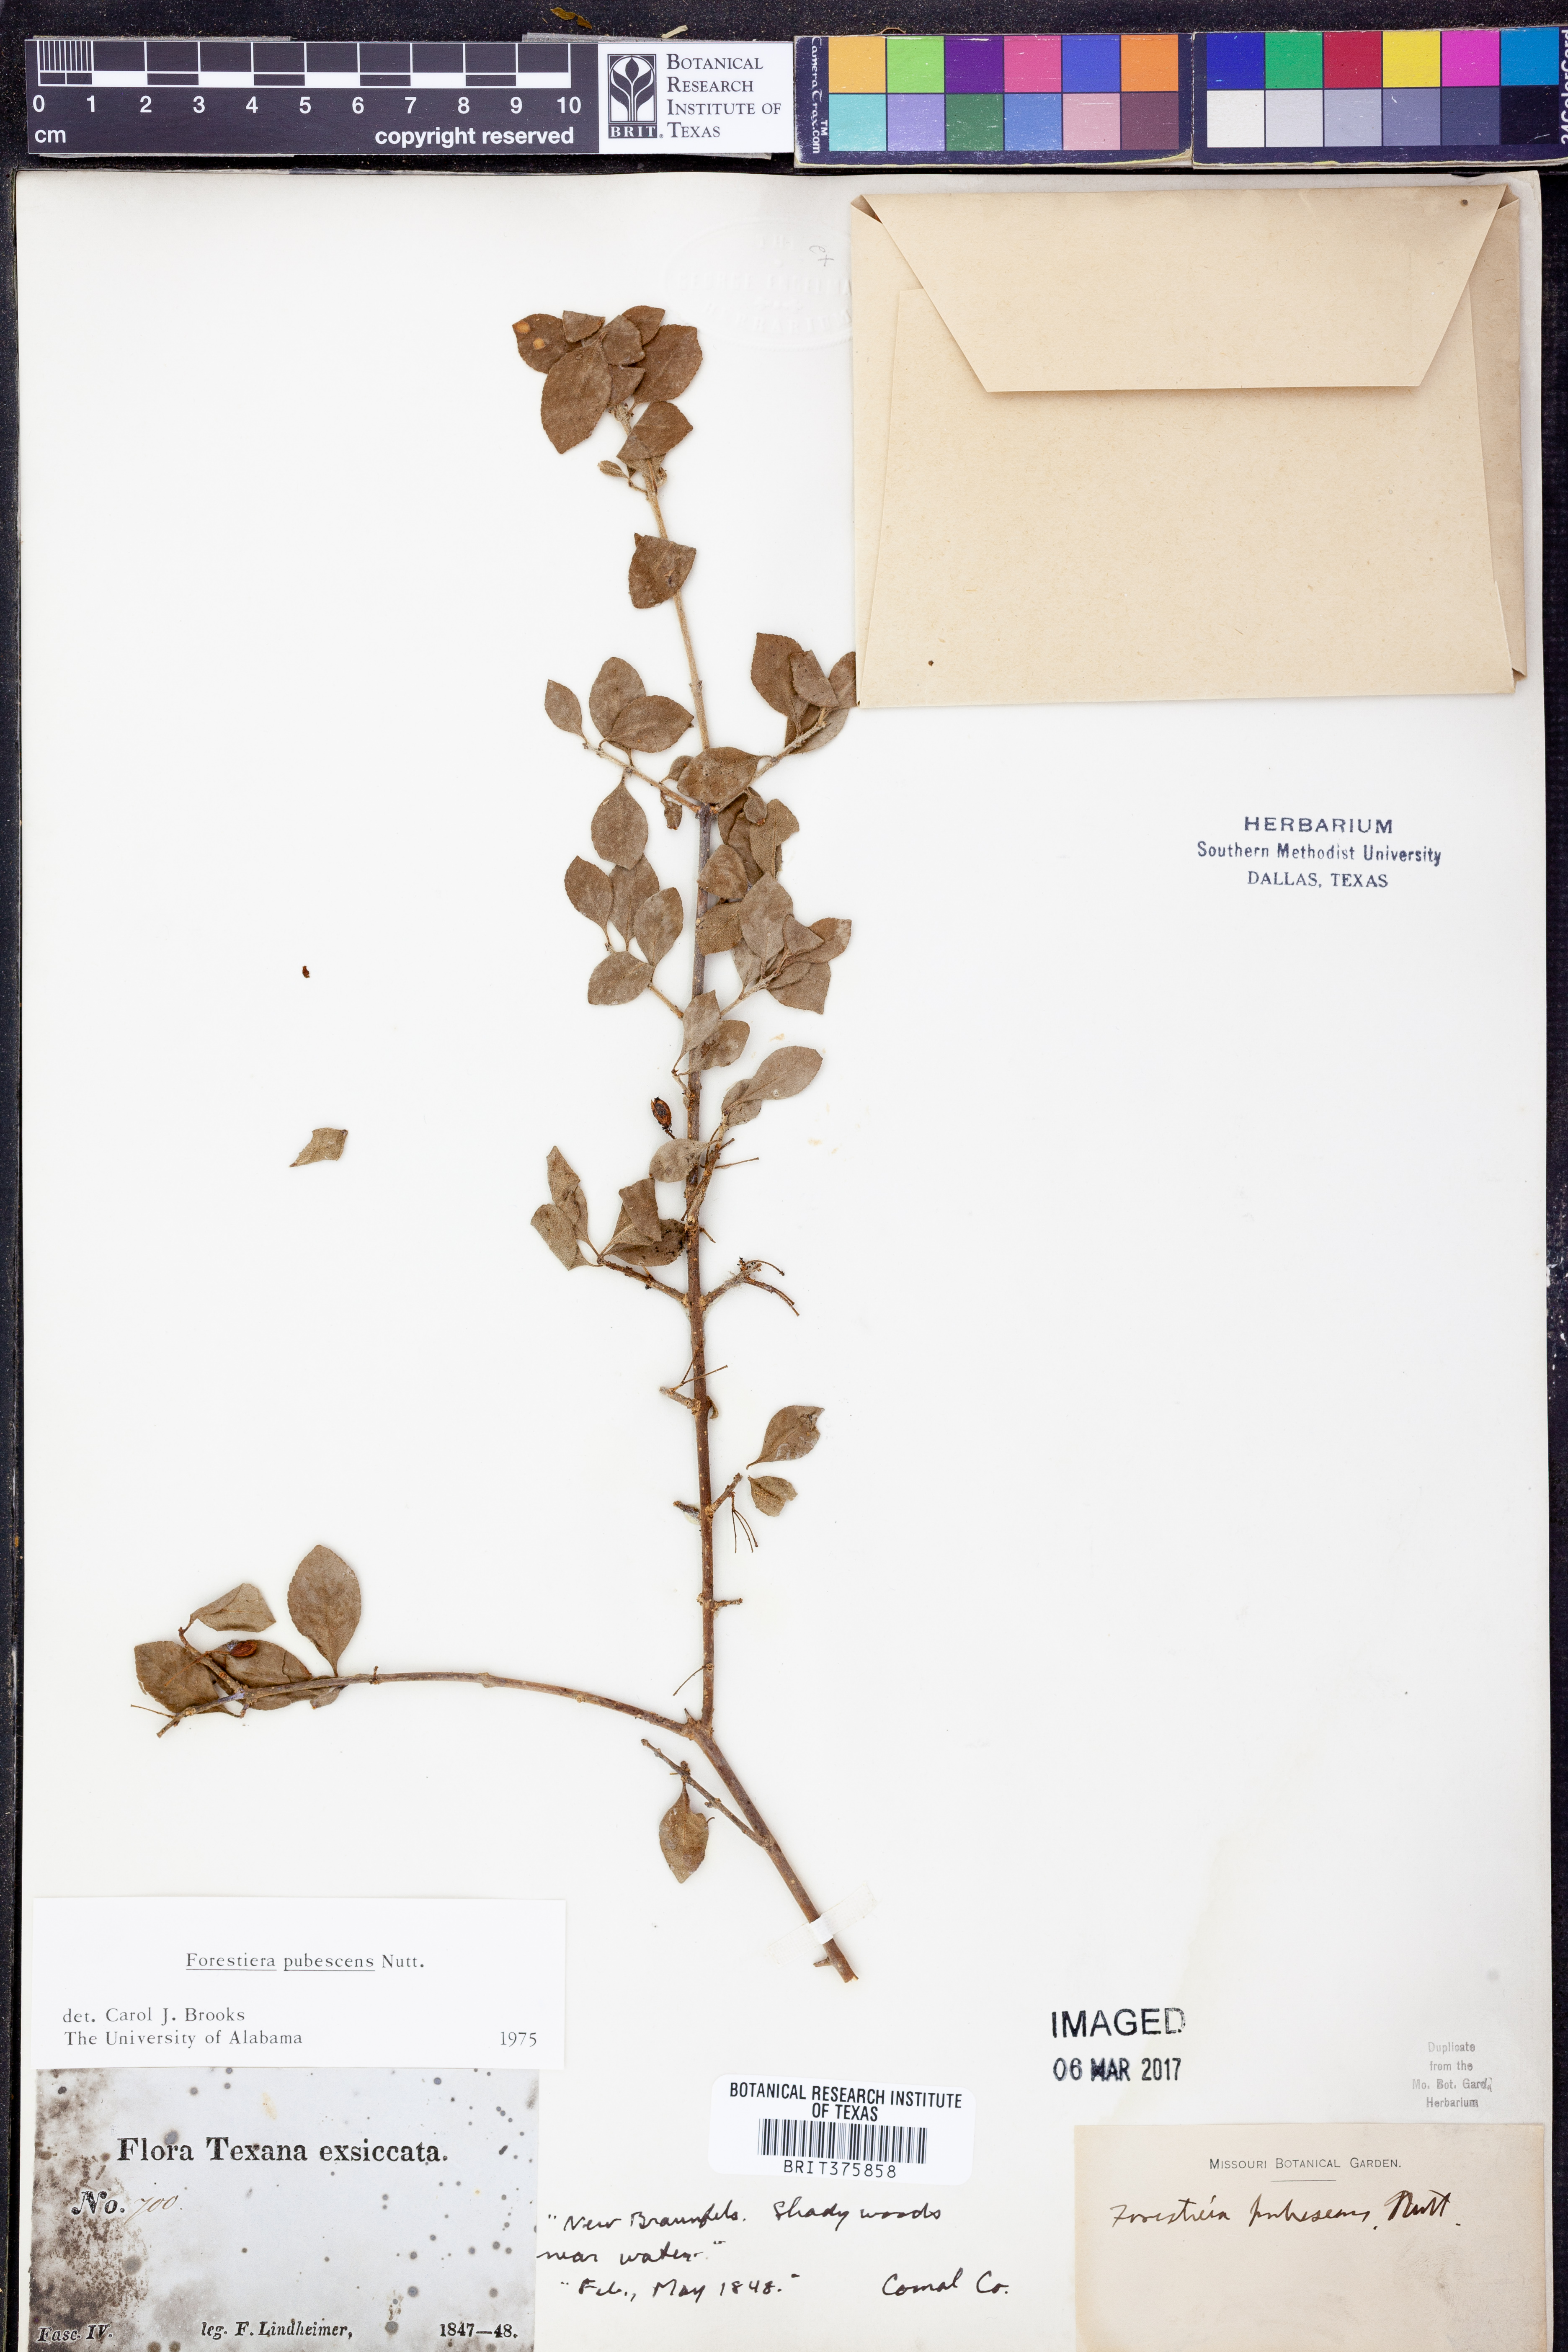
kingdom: Plantae
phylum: Tracheophyta
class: Magnoliopsida
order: Lamiales
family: Oleaceae
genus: Forestiera
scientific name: Forestiera pubescens
